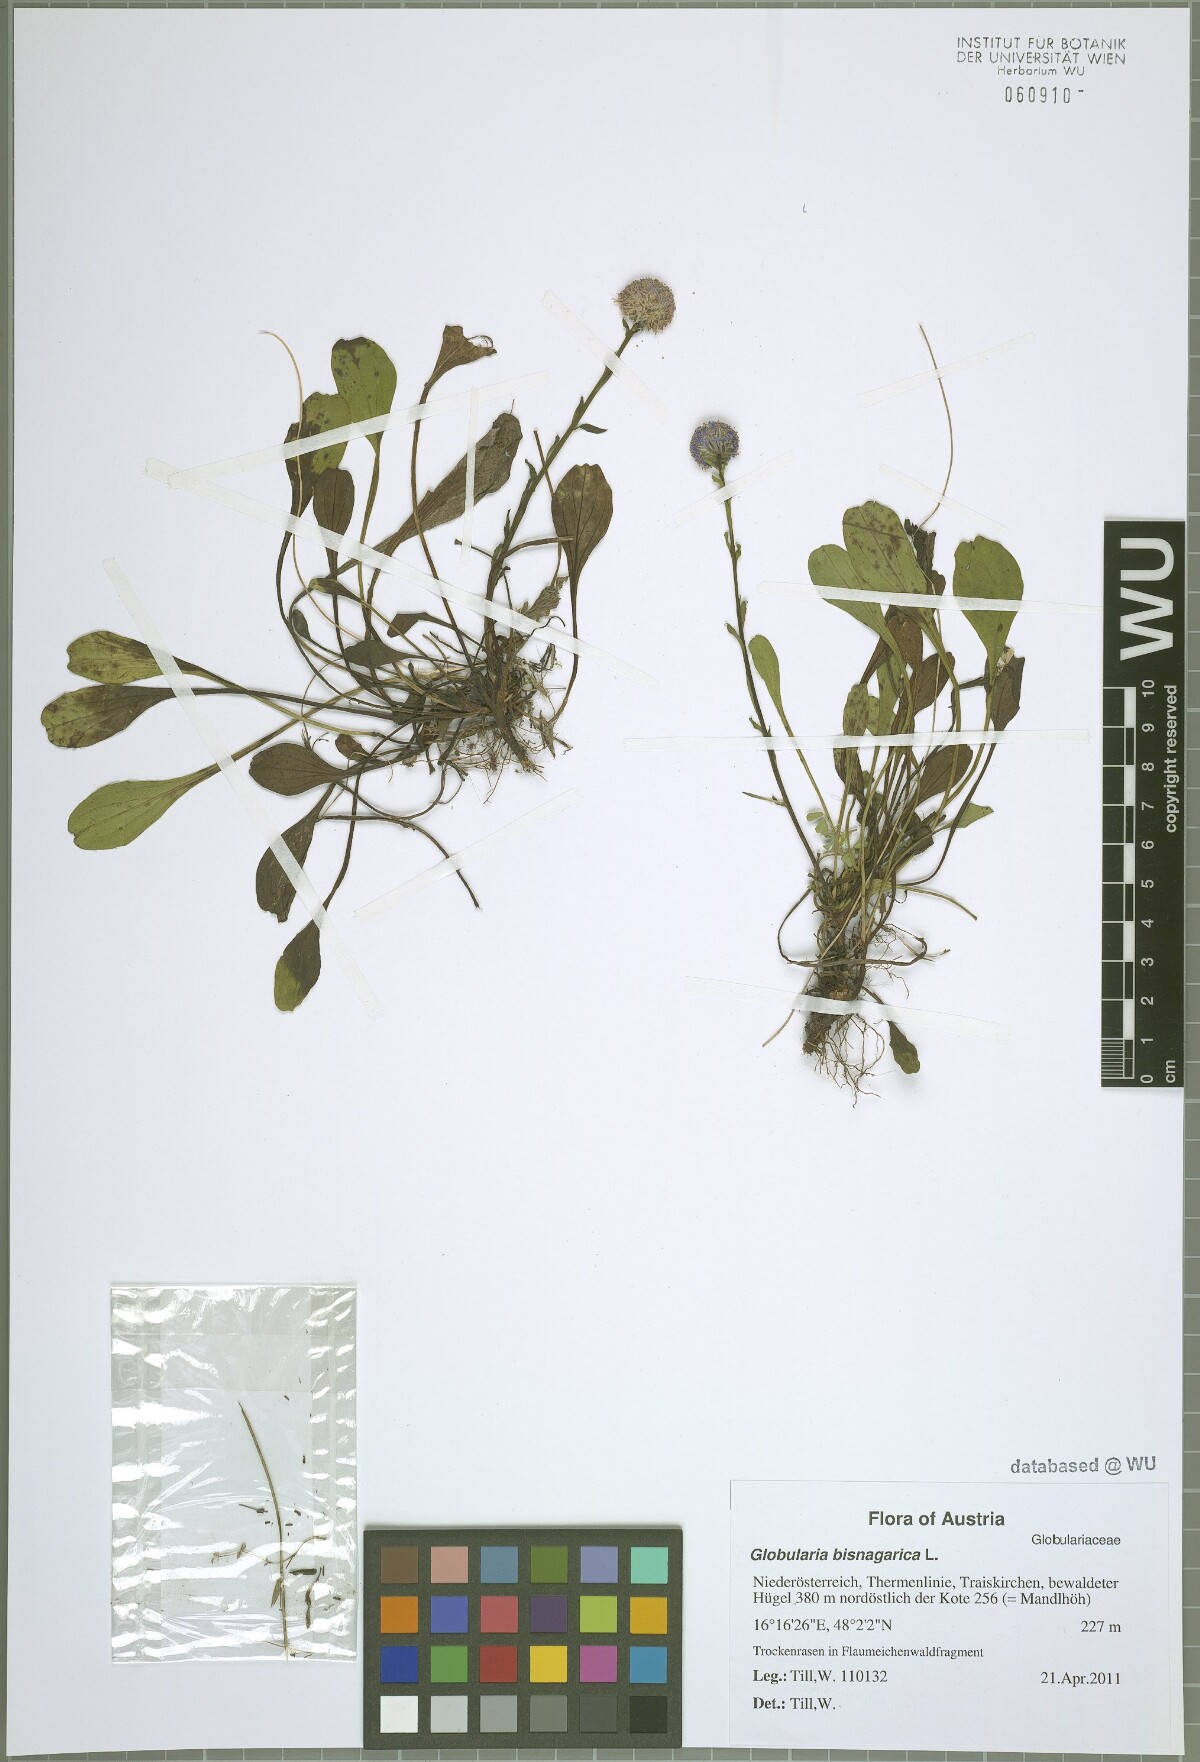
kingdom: Plantae
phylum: Tracheophyta
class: Magnoliopsida
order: Lamiales
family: Plantaginaceae
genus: Globularia
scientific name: Globularia bisnagarica
